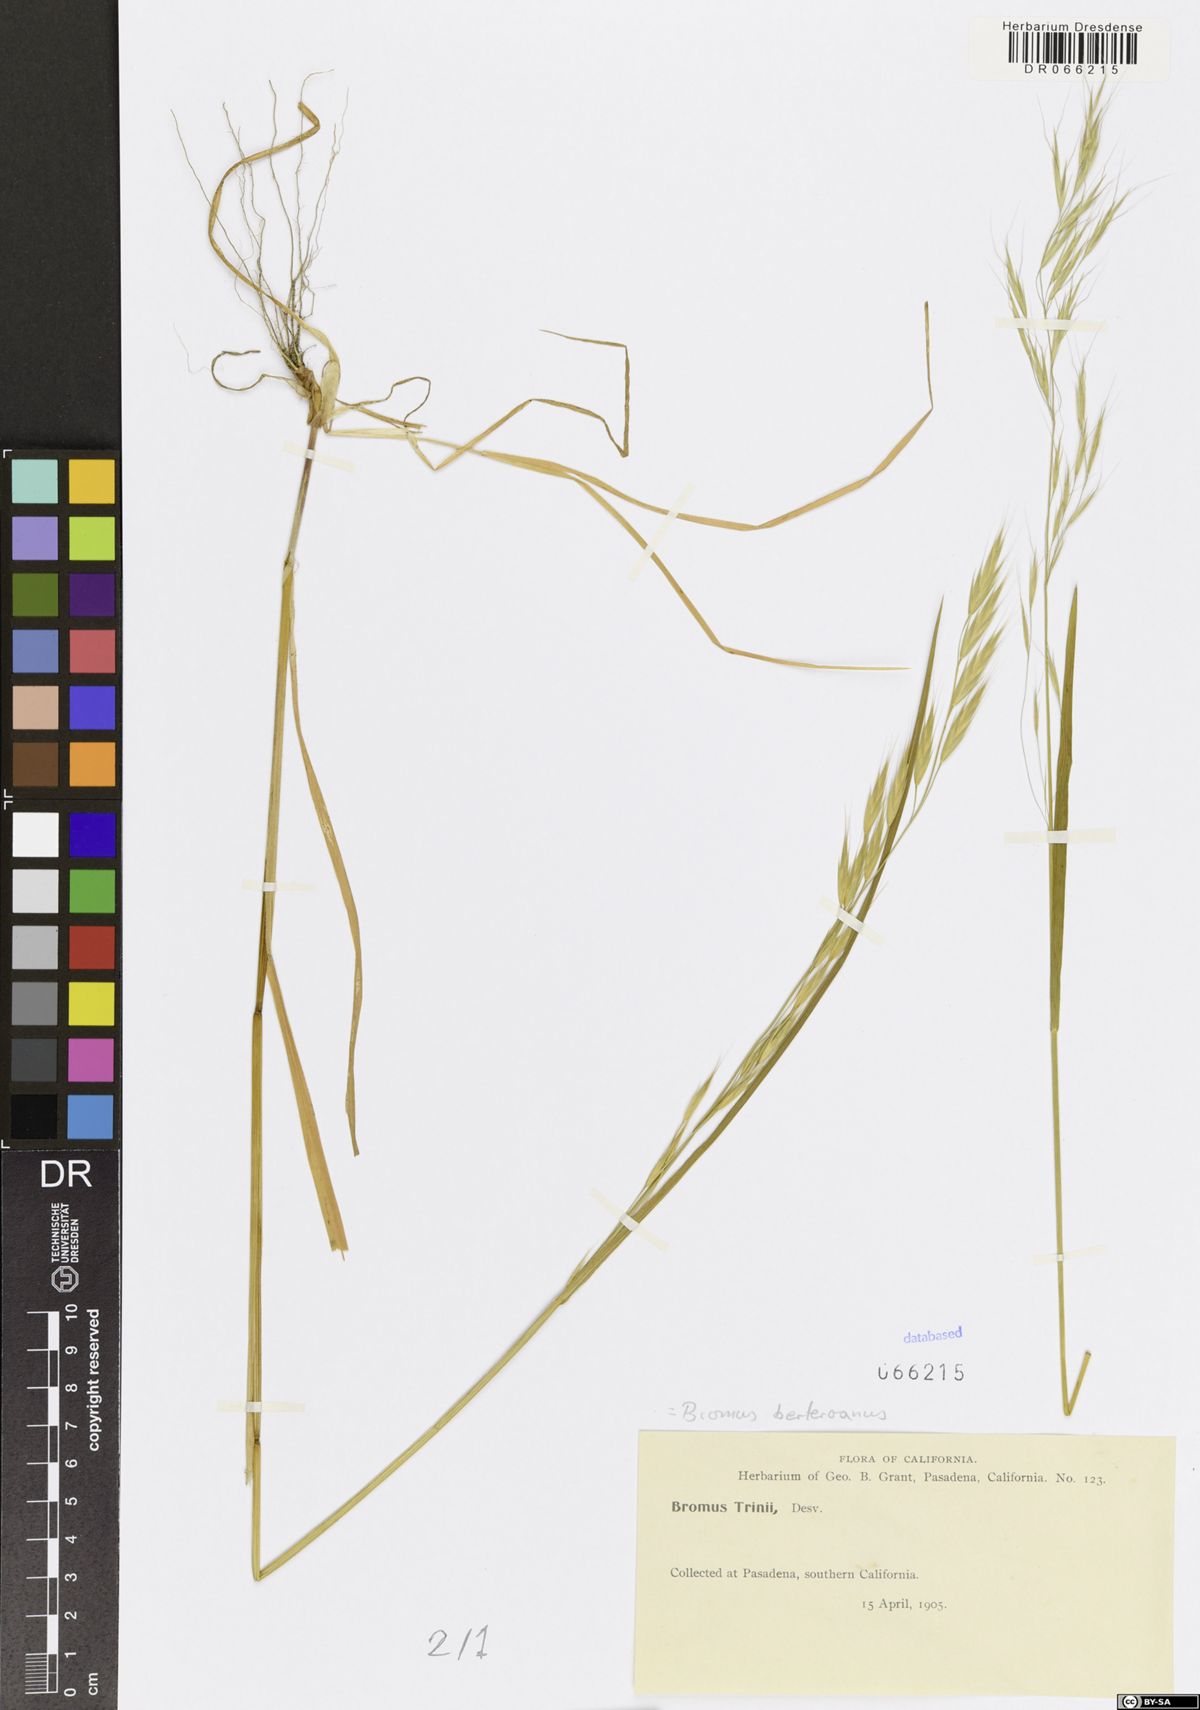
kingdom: Plantae
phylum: Tracheophyta
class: Liliopsida
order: Poales
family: Poaceae
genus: Bromus
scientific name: Bromus berteroanus
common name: Chilean chess
